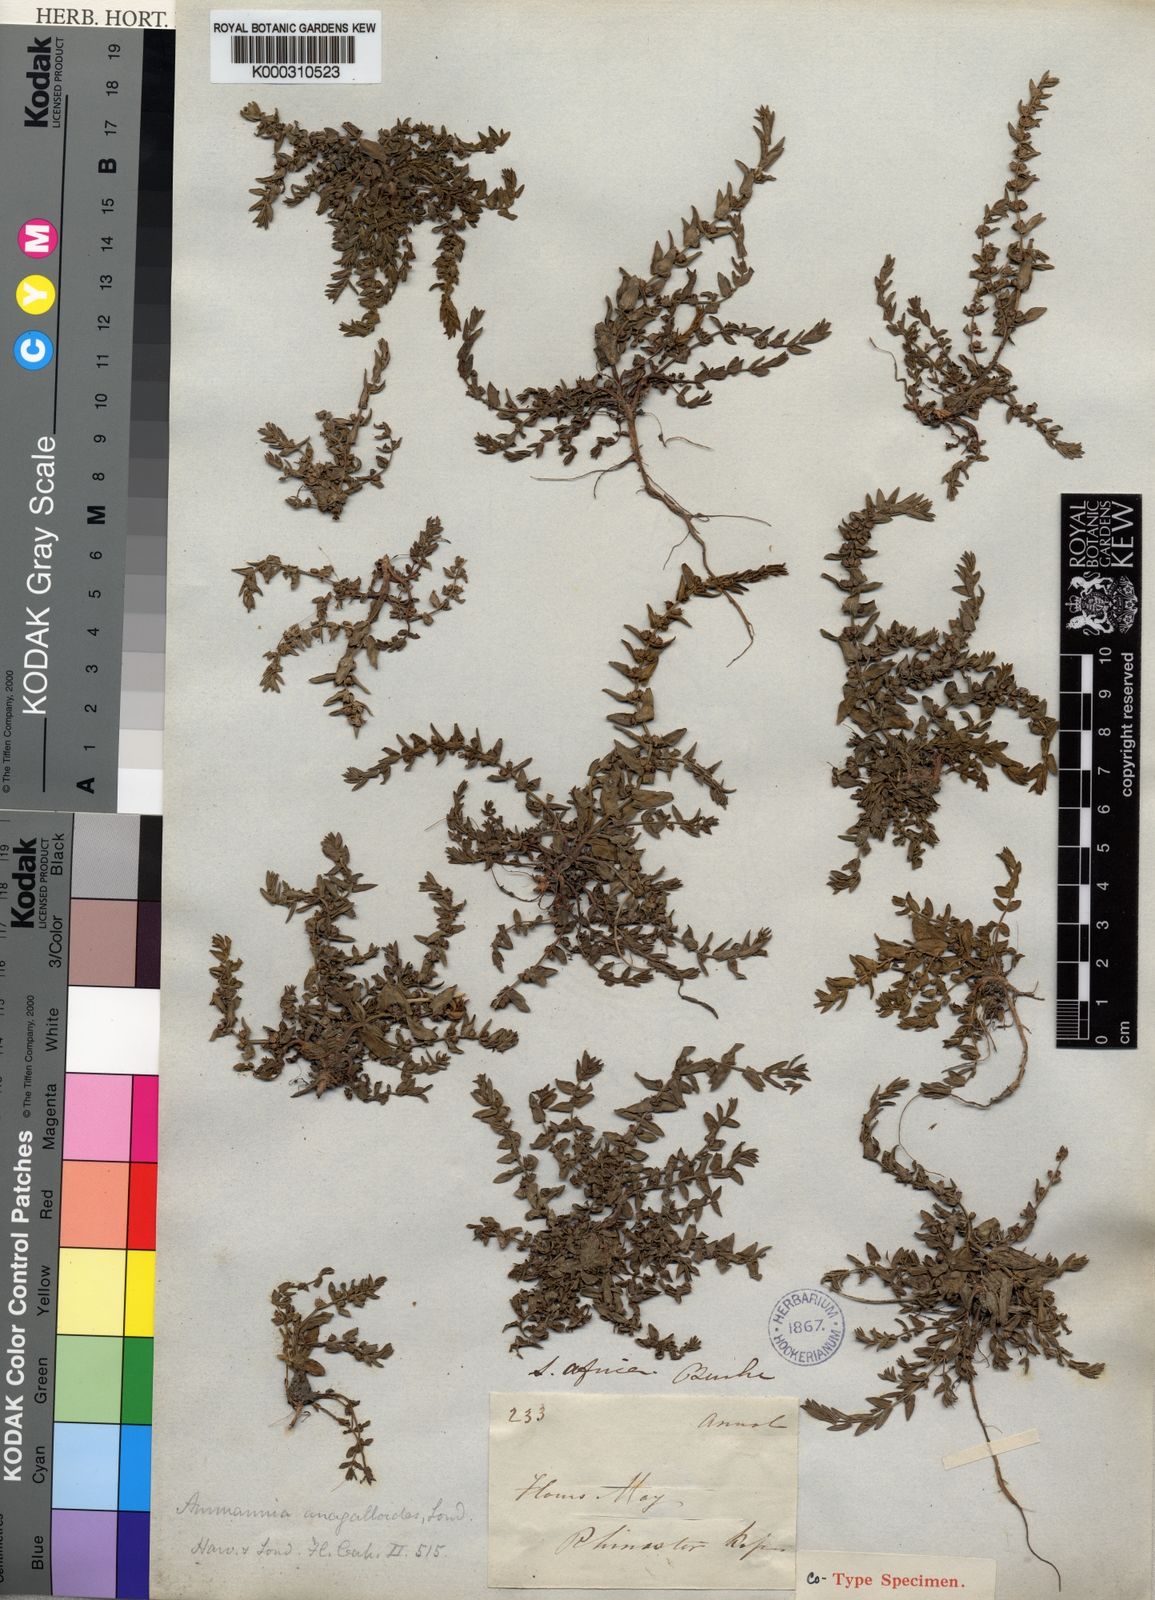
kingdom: Plantae
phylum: Tracheophyta
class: Magnoliopsida
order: Myrtales
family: Lythraceae
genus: Ammannia
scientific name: Ammannia anagalloides
